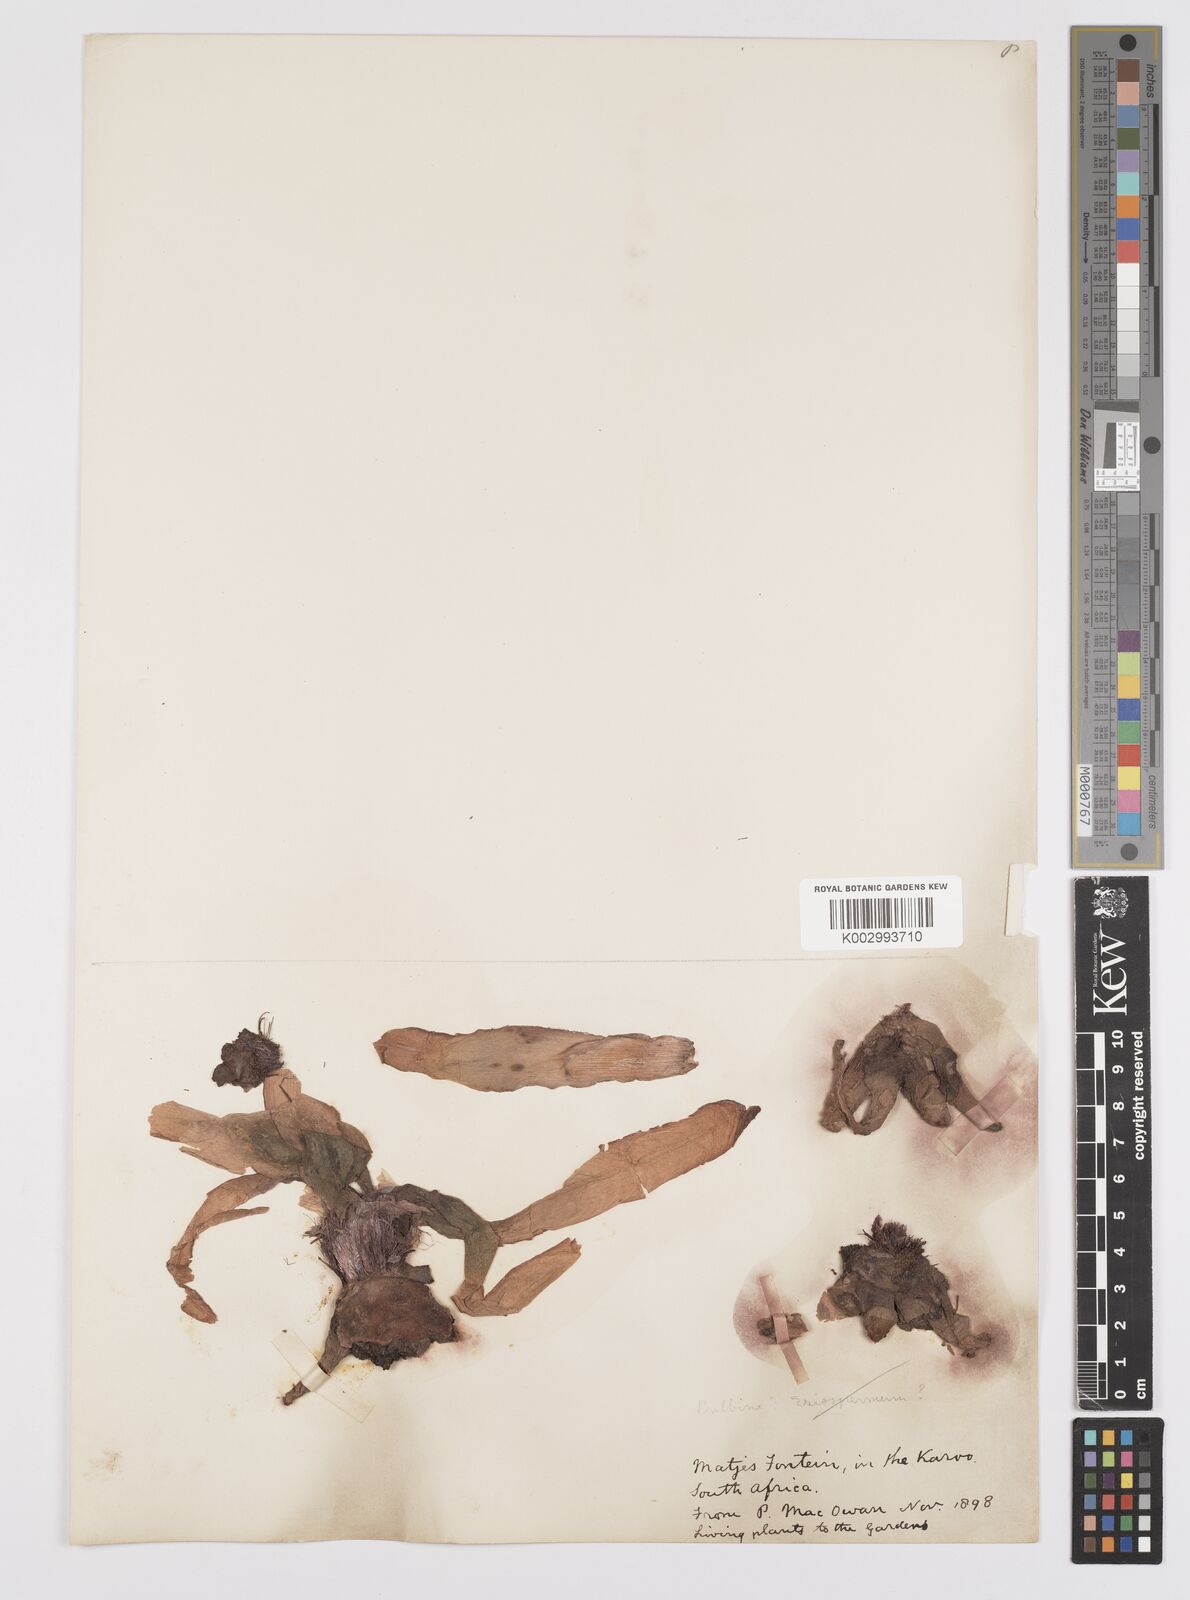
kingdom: Plantae
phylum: Tracheophyta
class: Liliopsida
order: Asparagales
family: Asphodelaceae
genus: Bulbine
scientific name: Bulbine latifolia
